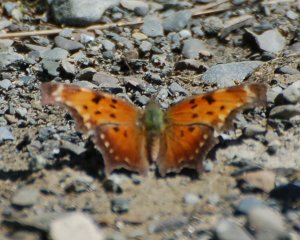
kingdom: Animalia
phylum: Arthropoda
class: Insecta
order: Lepidoptera
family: Nymphalidae
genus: Polygonia
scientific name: Polygonia progne
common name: Gray Comma
